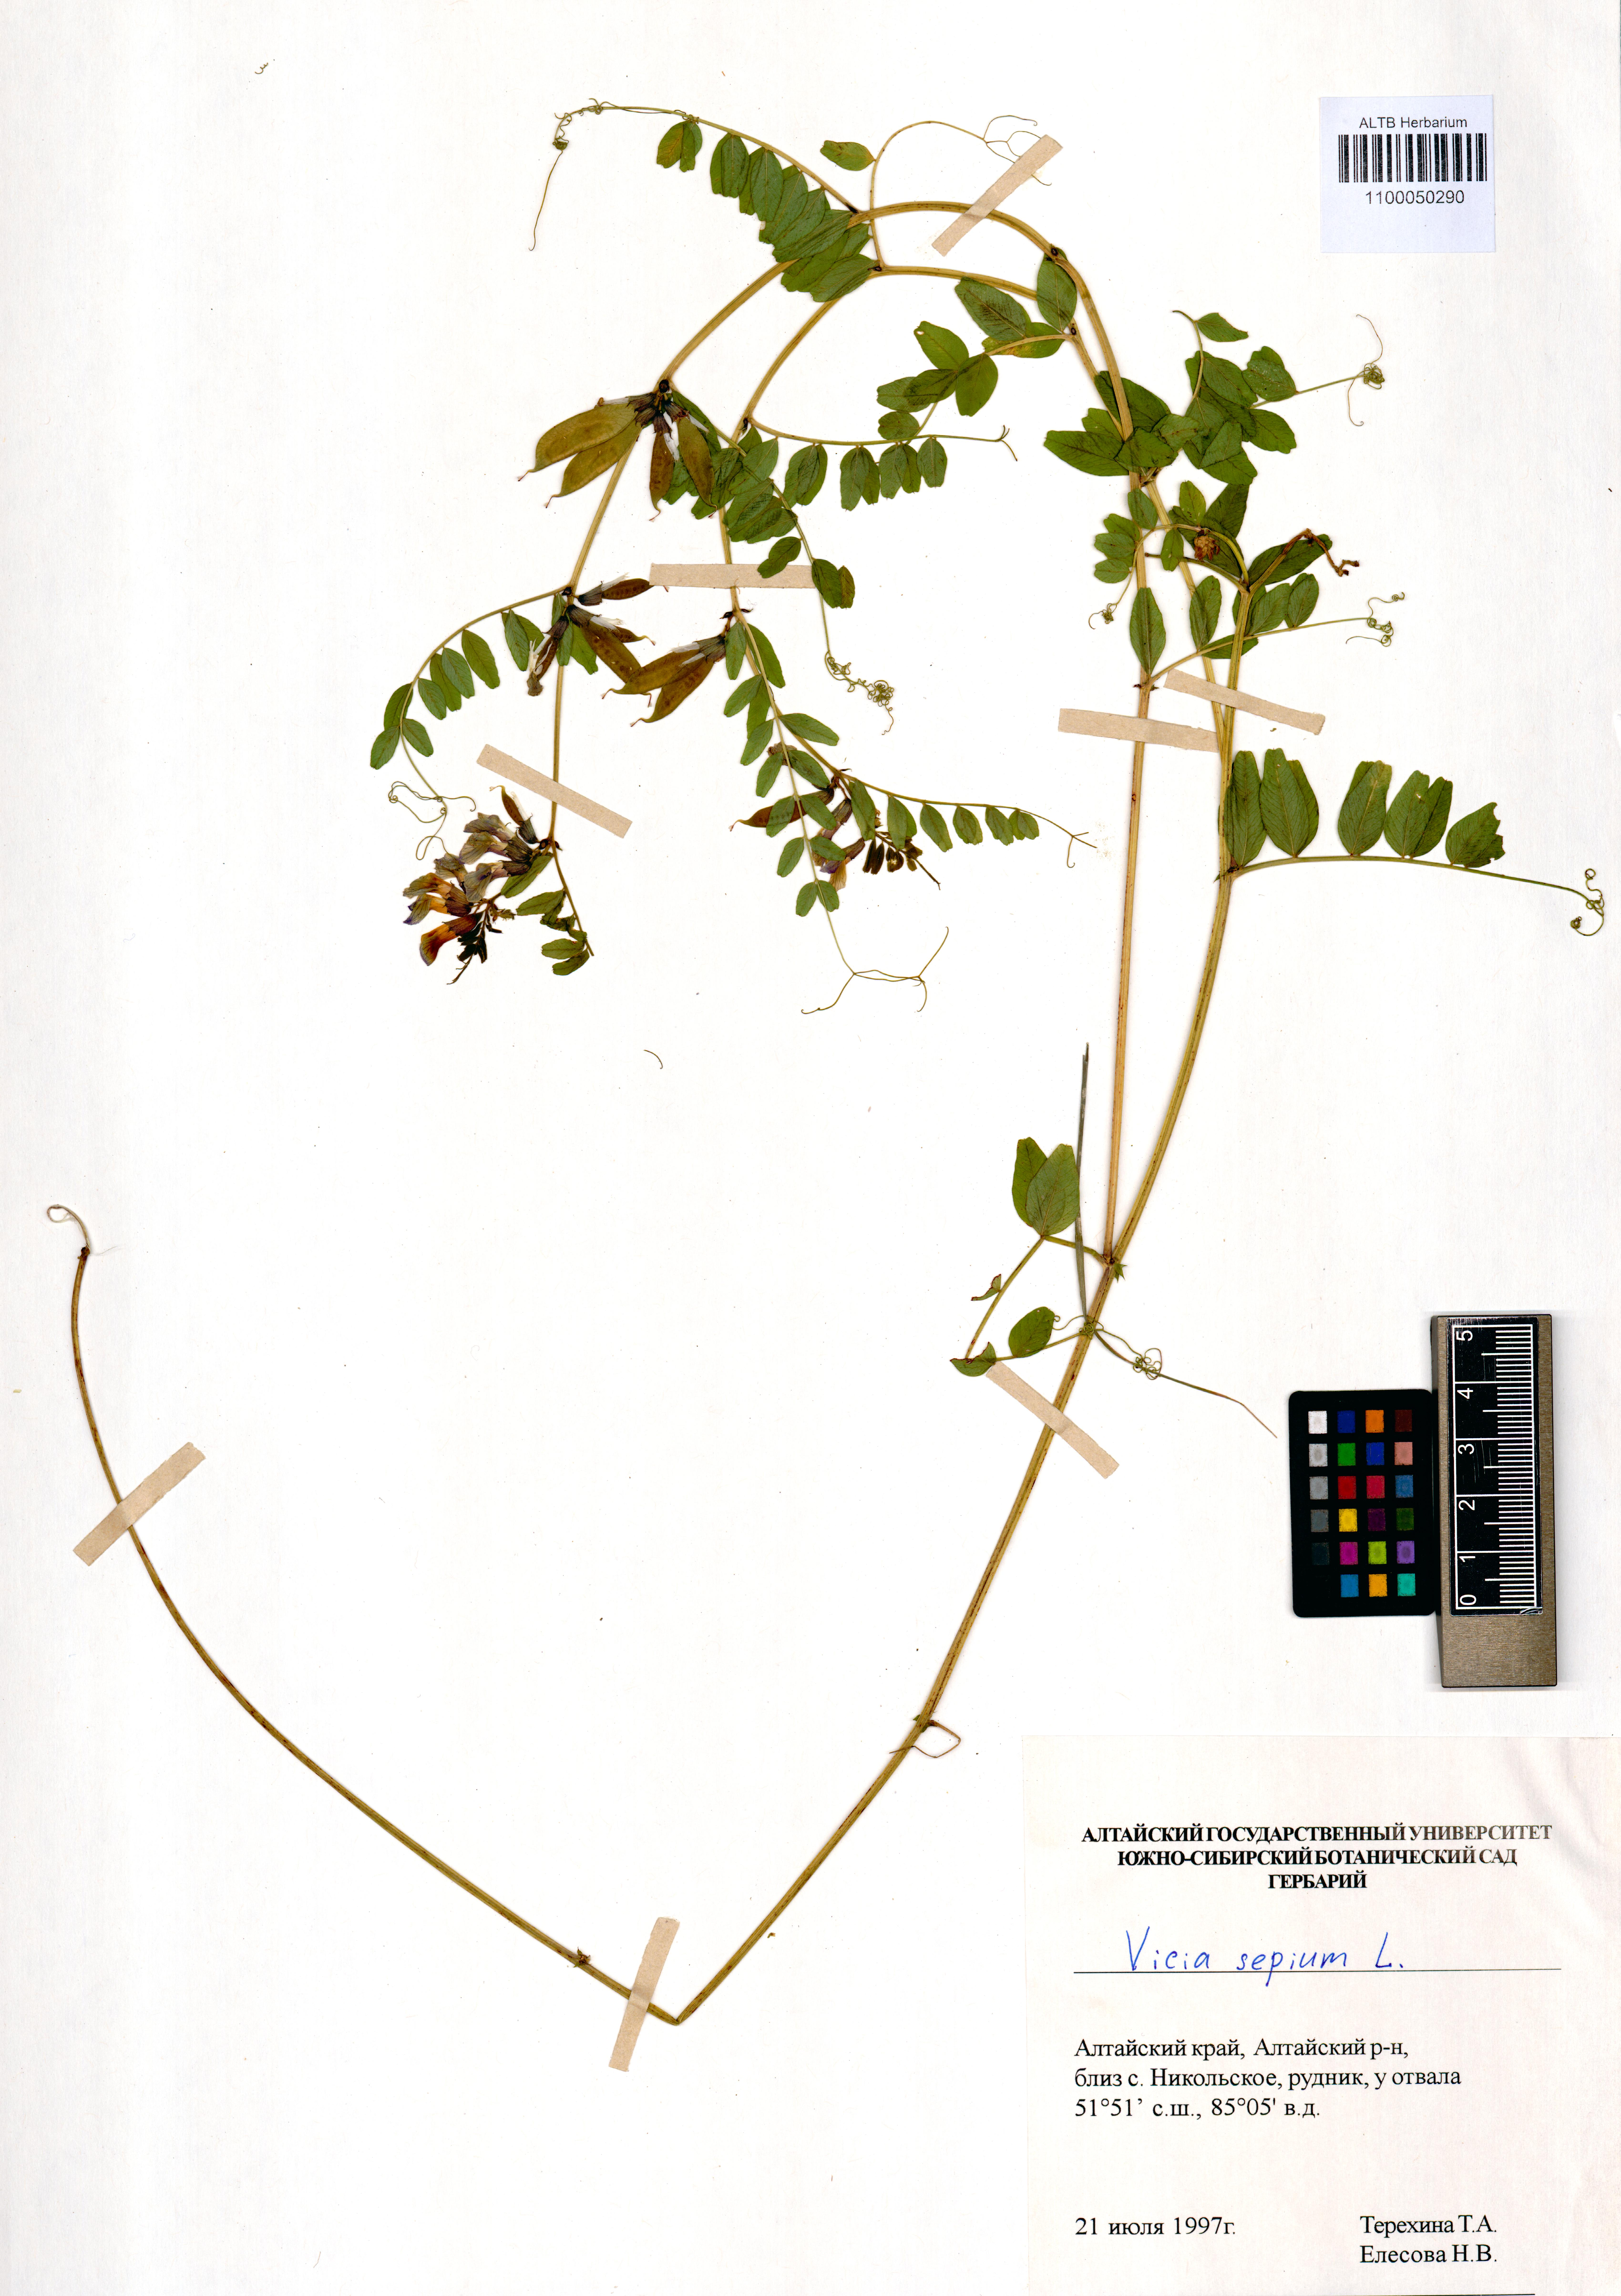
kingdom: Plantae
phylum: Tracheophyta
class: Magnoliopsida
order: Fabales
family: Fabaceae
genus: Vicia
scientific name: Vicia sepium
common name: Bush vetch
